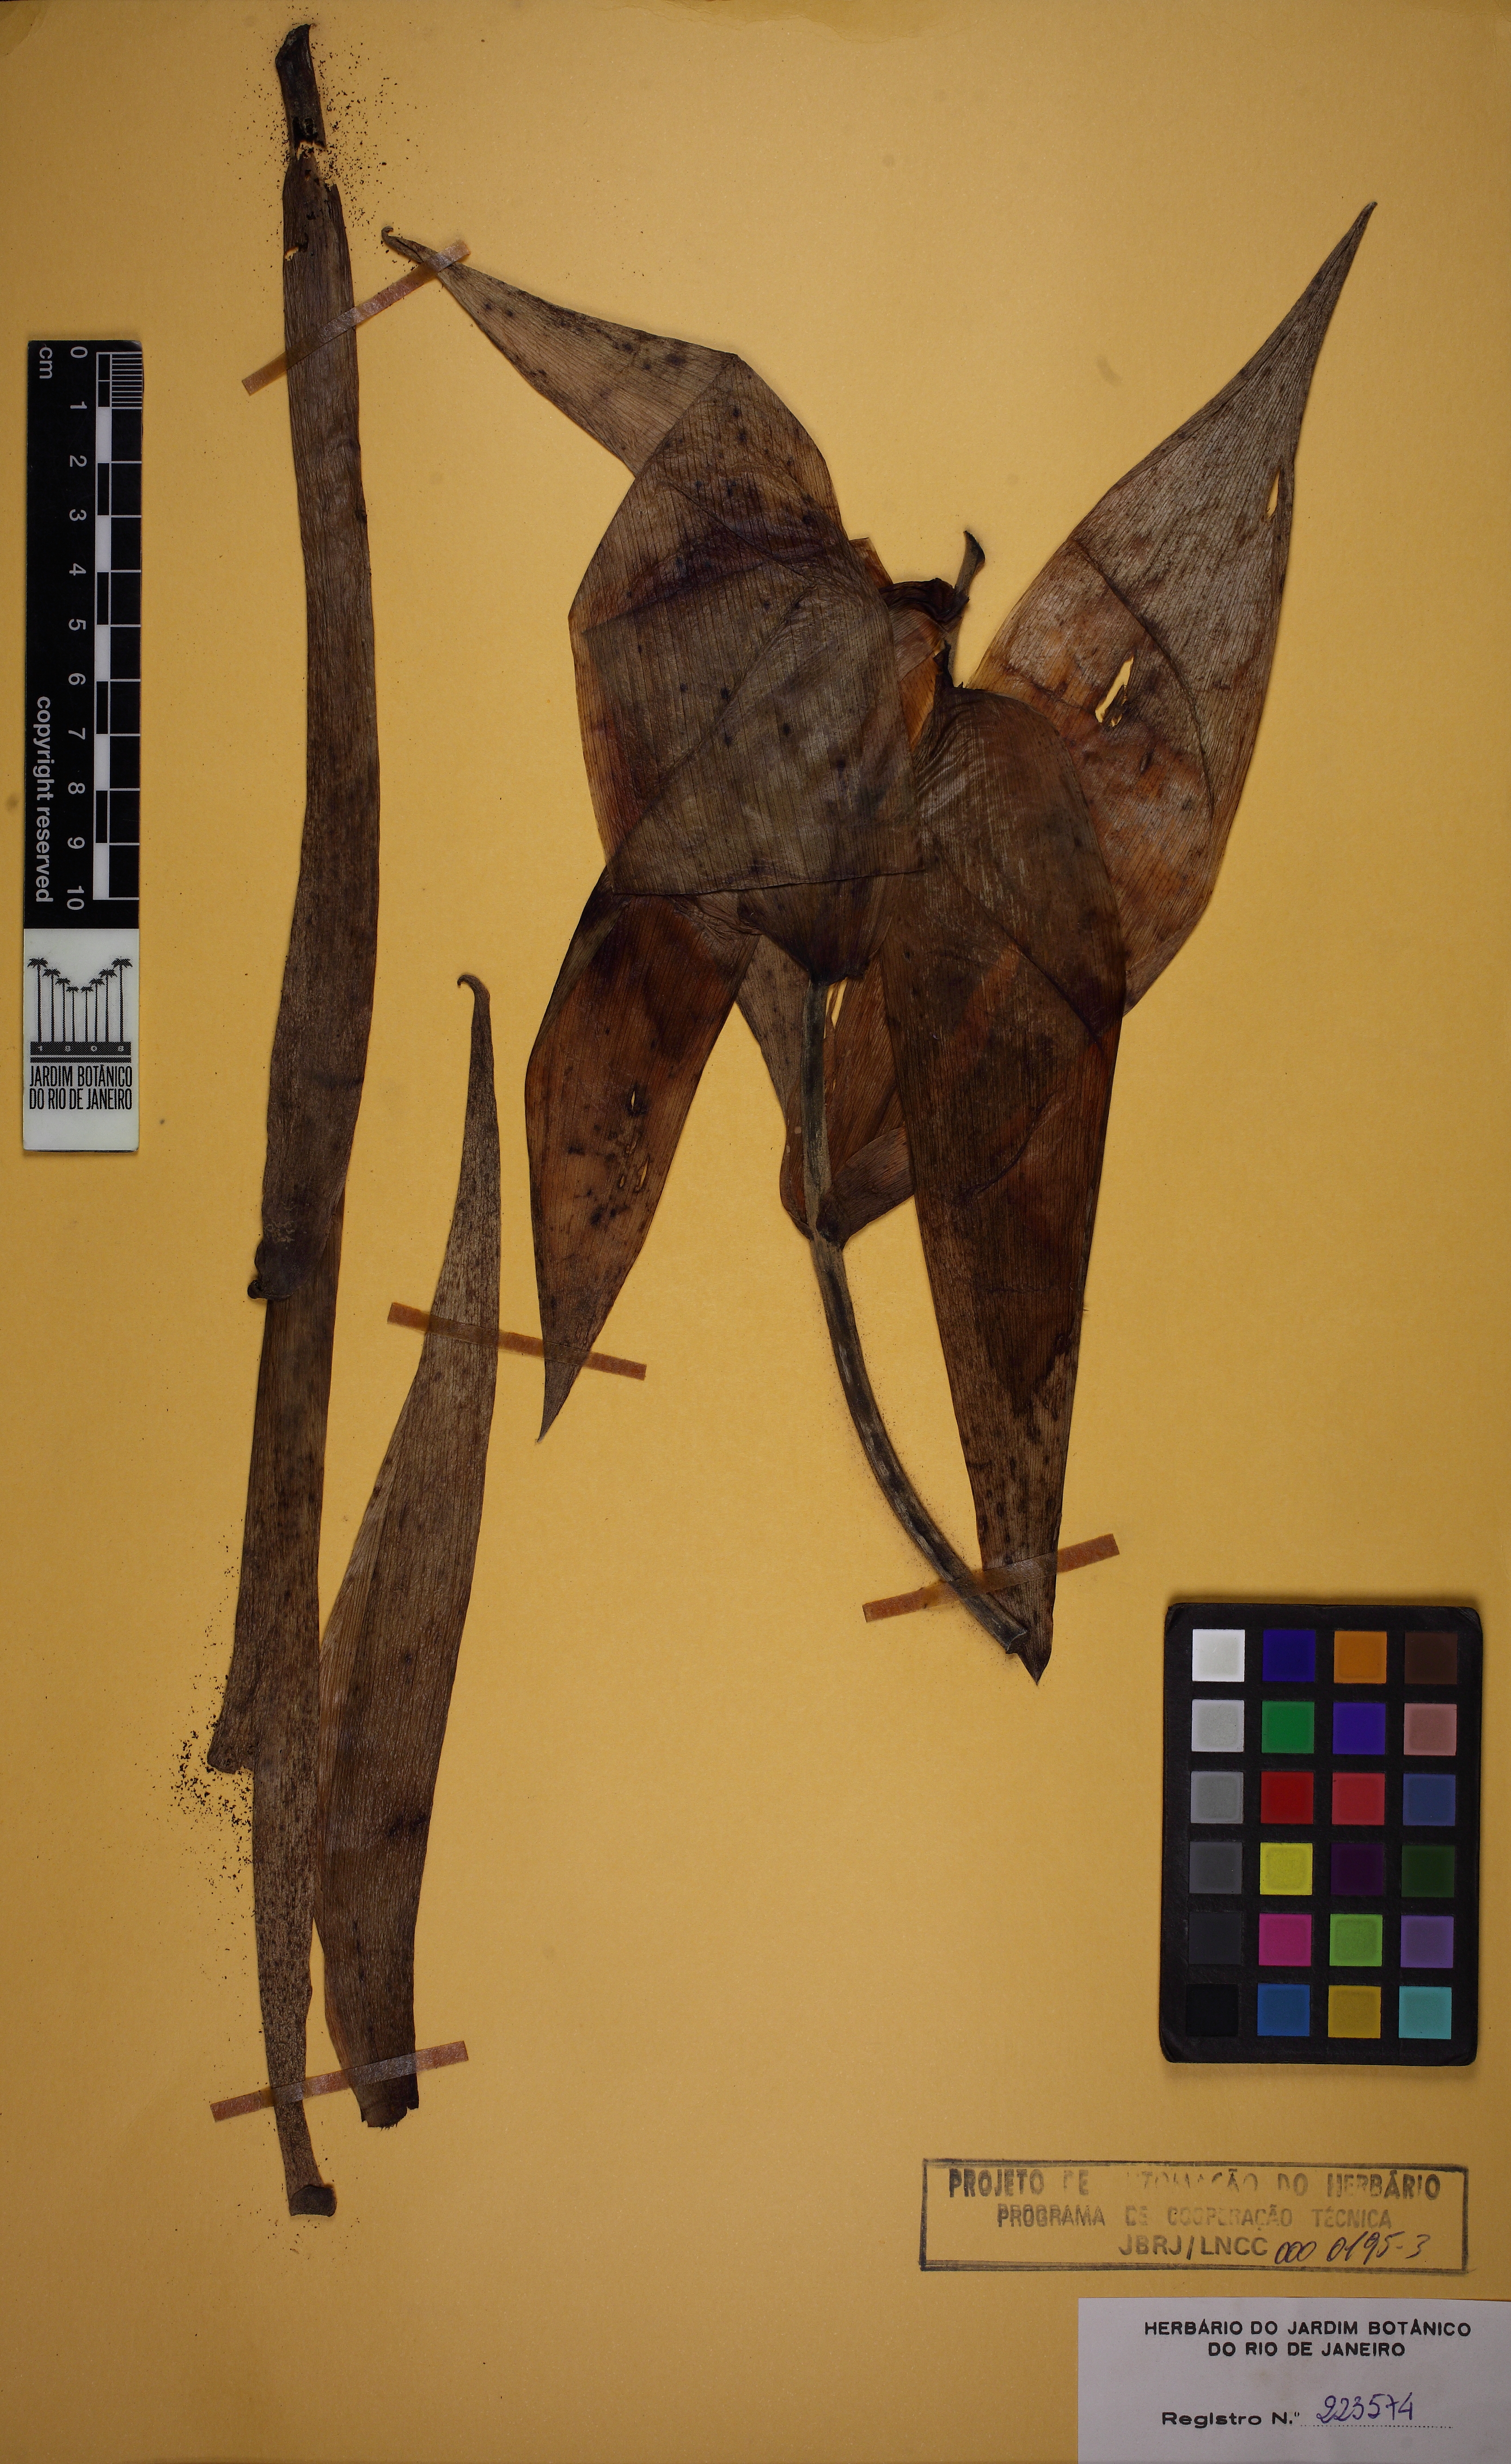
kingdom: Plantae
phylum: Tracheophyta
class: Liliopsida
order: Poales
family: Bromeliaceae
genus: Billbergia
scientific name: Billbergia porteana
